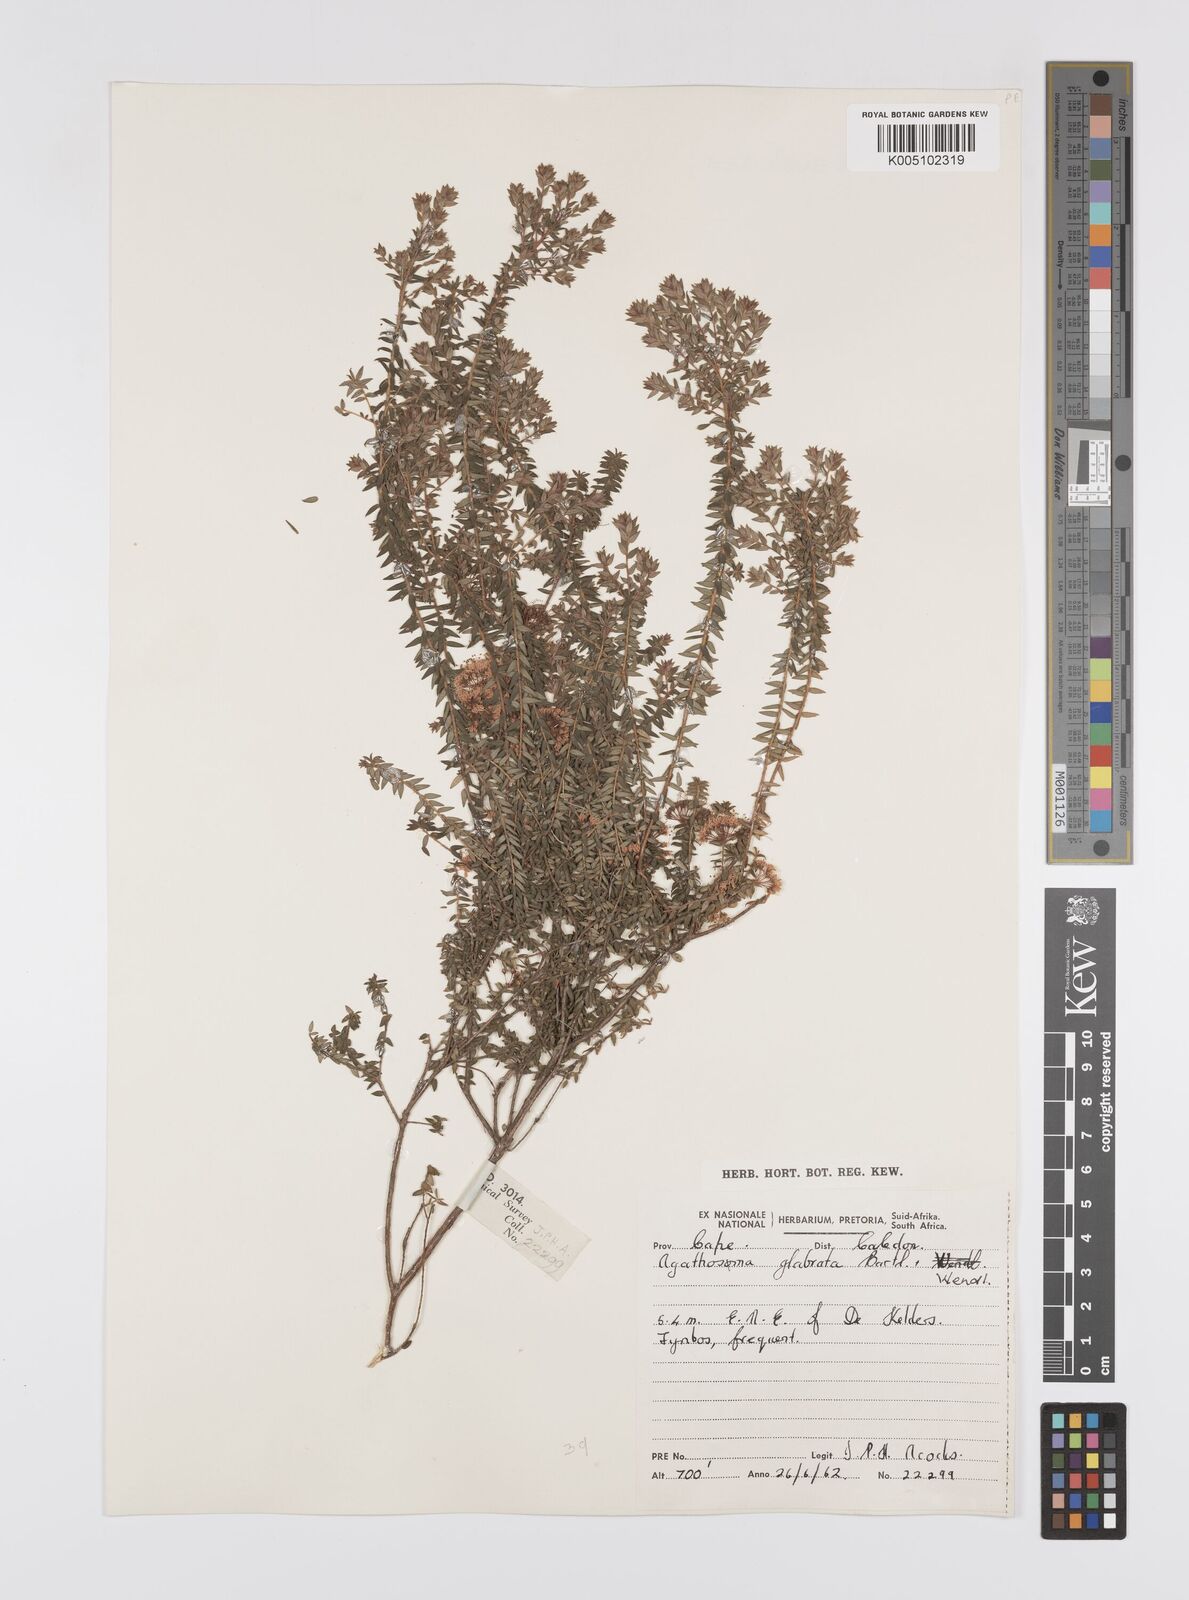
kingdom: Plantae
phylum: Tracheophyta
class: Magnoliopsida
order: Sapindales
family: Rutaceae
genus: Agathosma
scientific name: Agathosma
